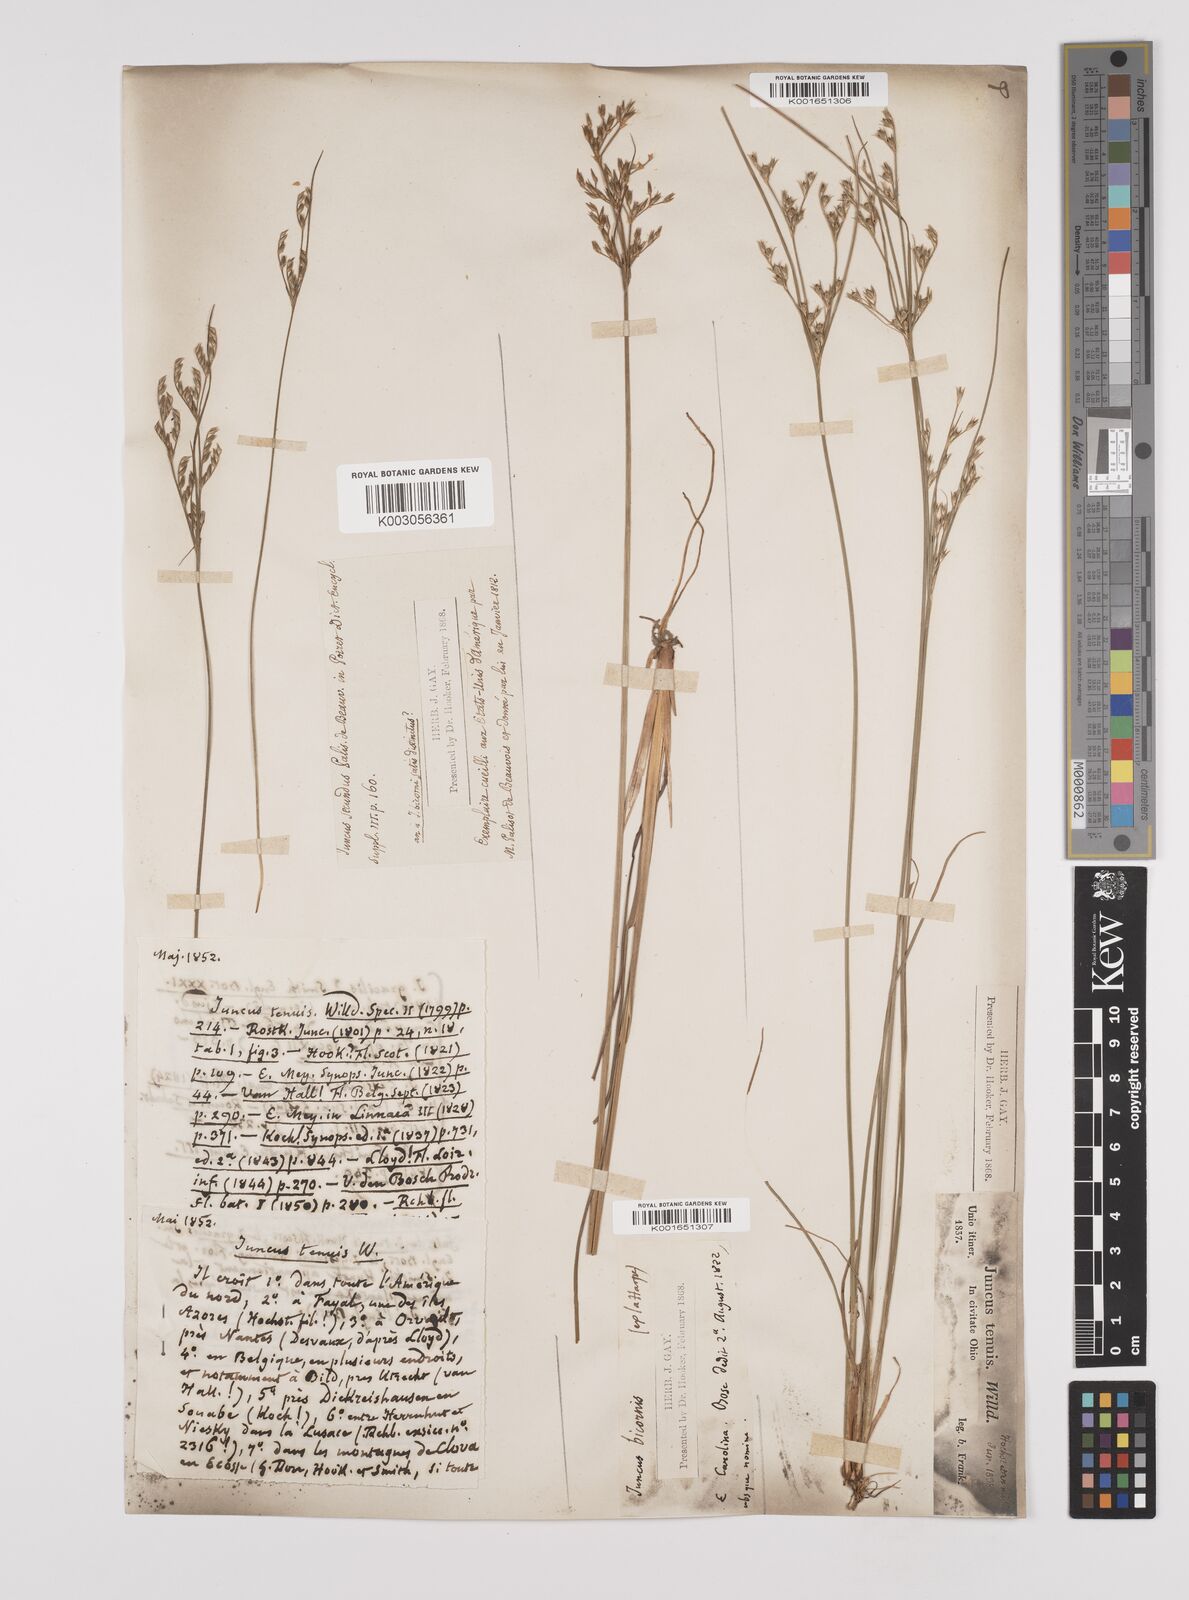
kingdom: Plantae
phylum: Tracheophyta
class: Liliopsida
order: Poales
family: Juncaceae
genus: Juncus
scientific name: Juncus tenuis
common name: Slender rush
